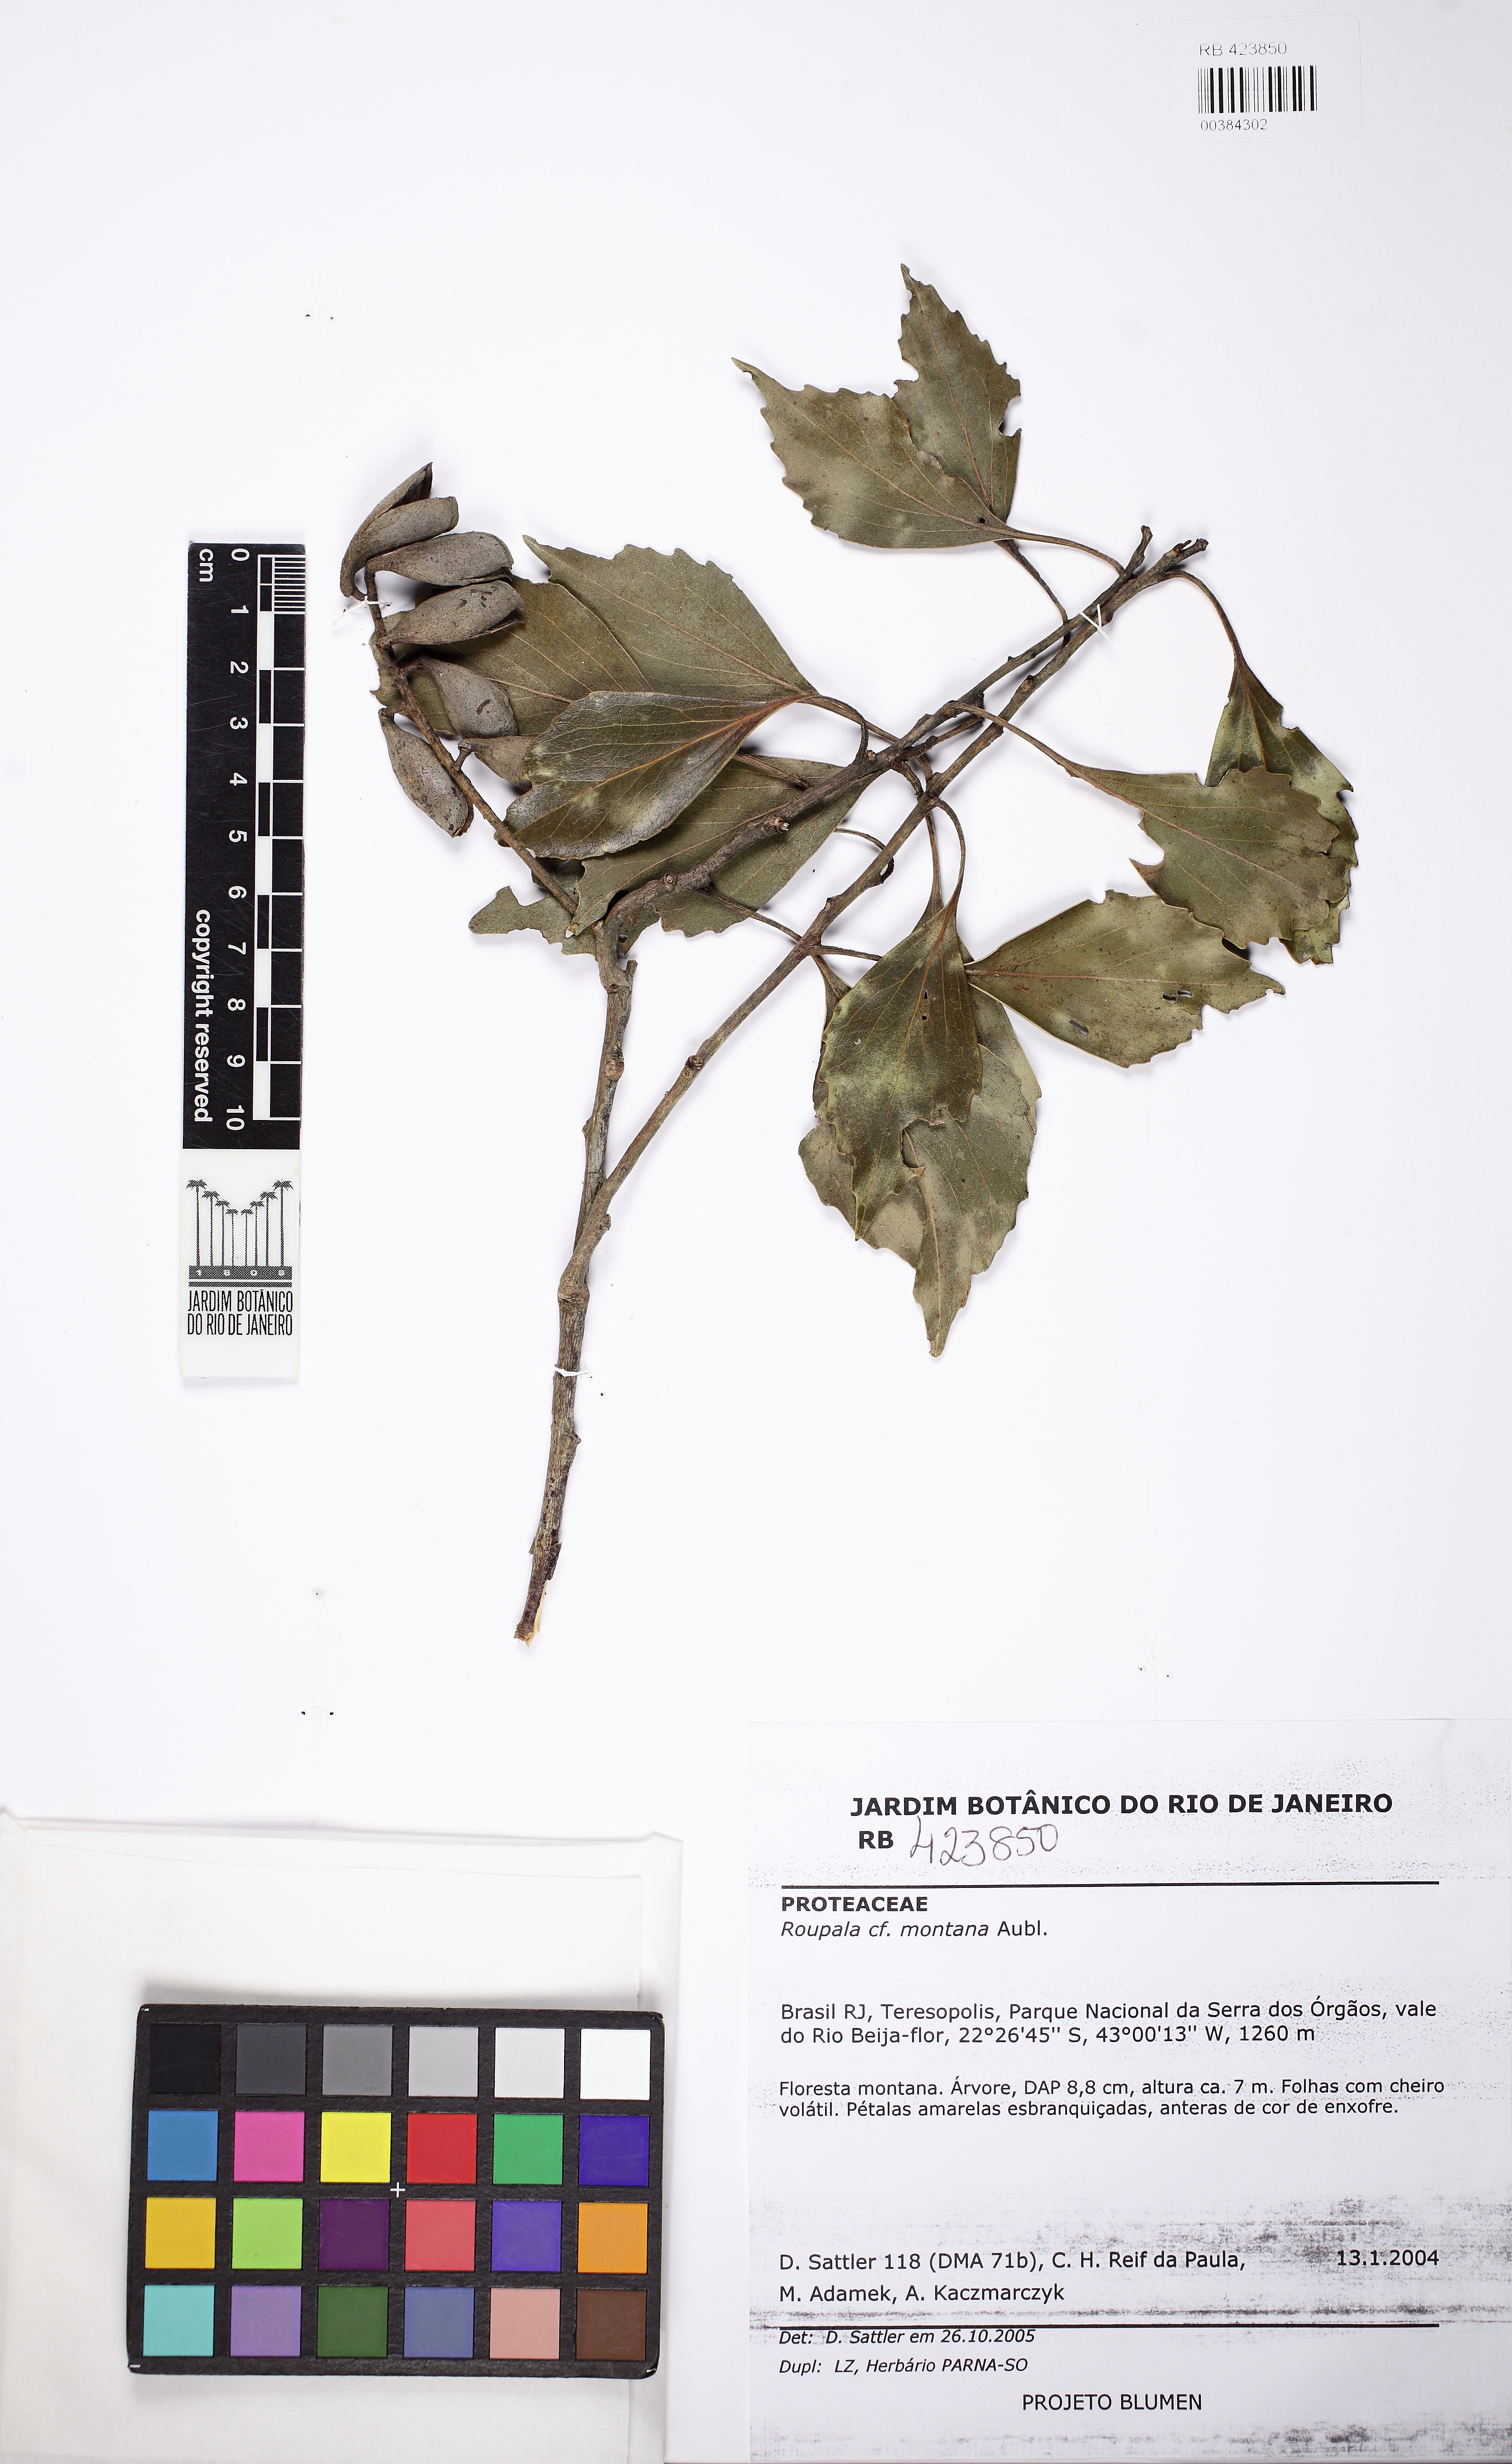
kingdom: Plantae
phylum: Tracheophyta
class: Magnoliopsida
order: Proteales
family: Proteaceae
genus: Roupala
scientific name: Roupala montana
